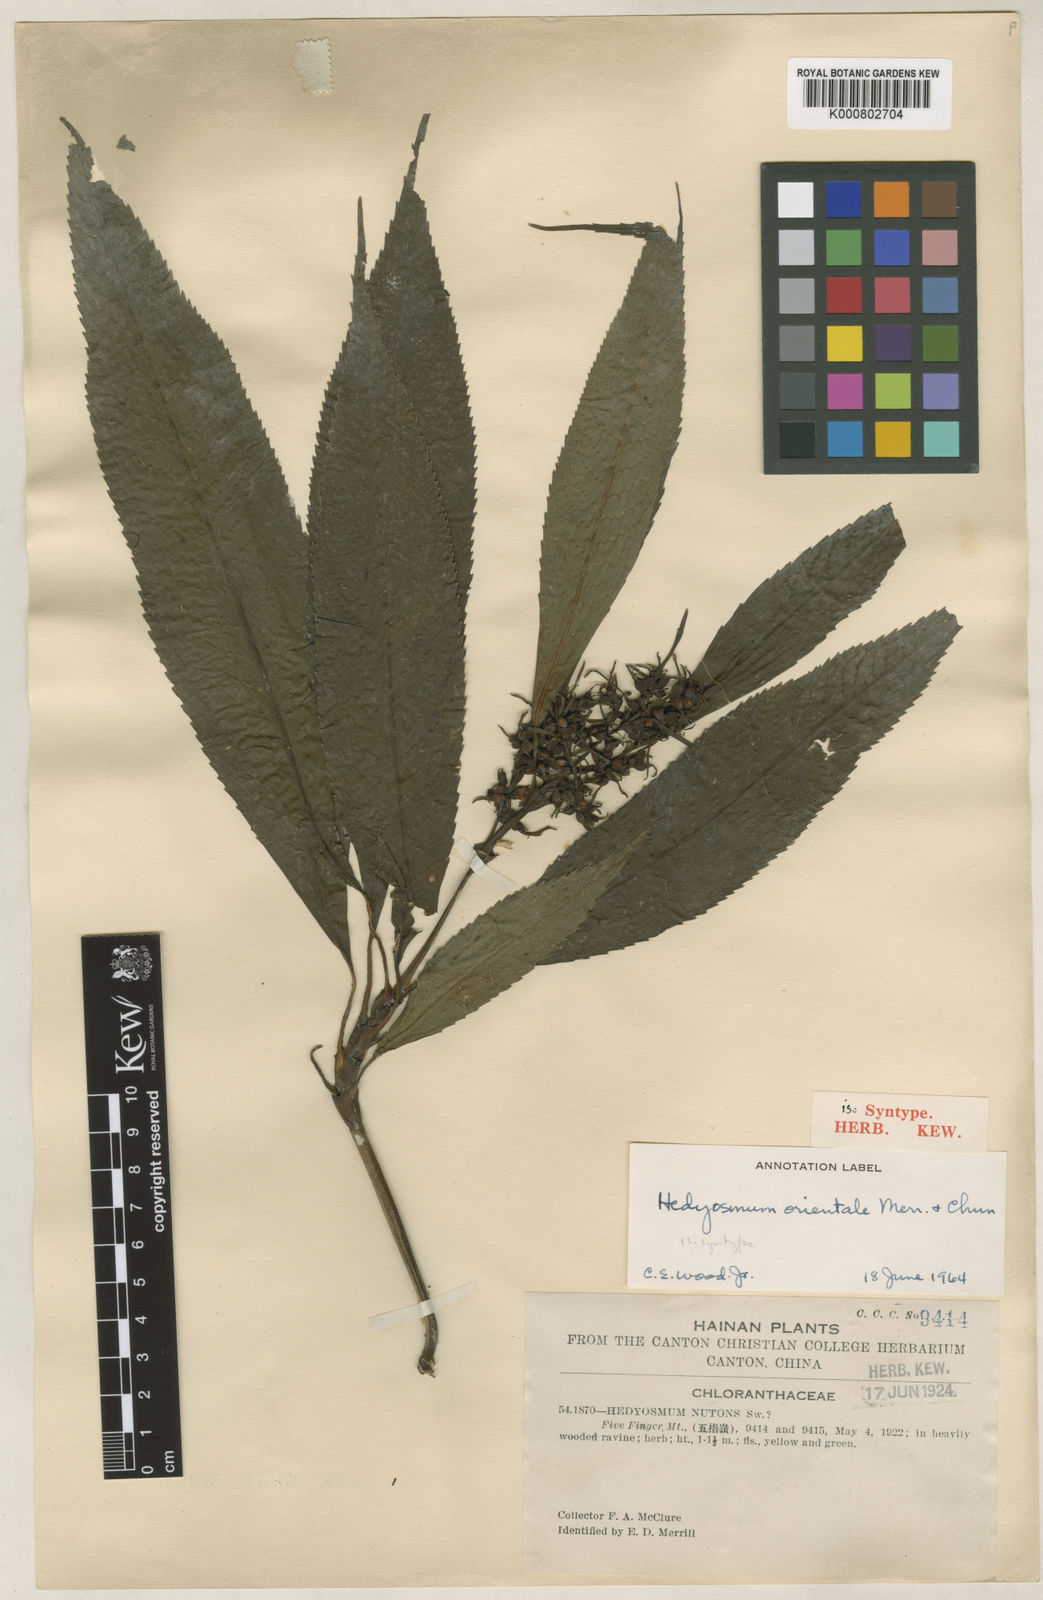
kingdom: Plantae
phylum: Tracheophyta
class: Magnoliopsida
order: Chloranthales
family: Chloranthaceae
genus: Hedyosmum
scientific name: Hedyosmum orientale
